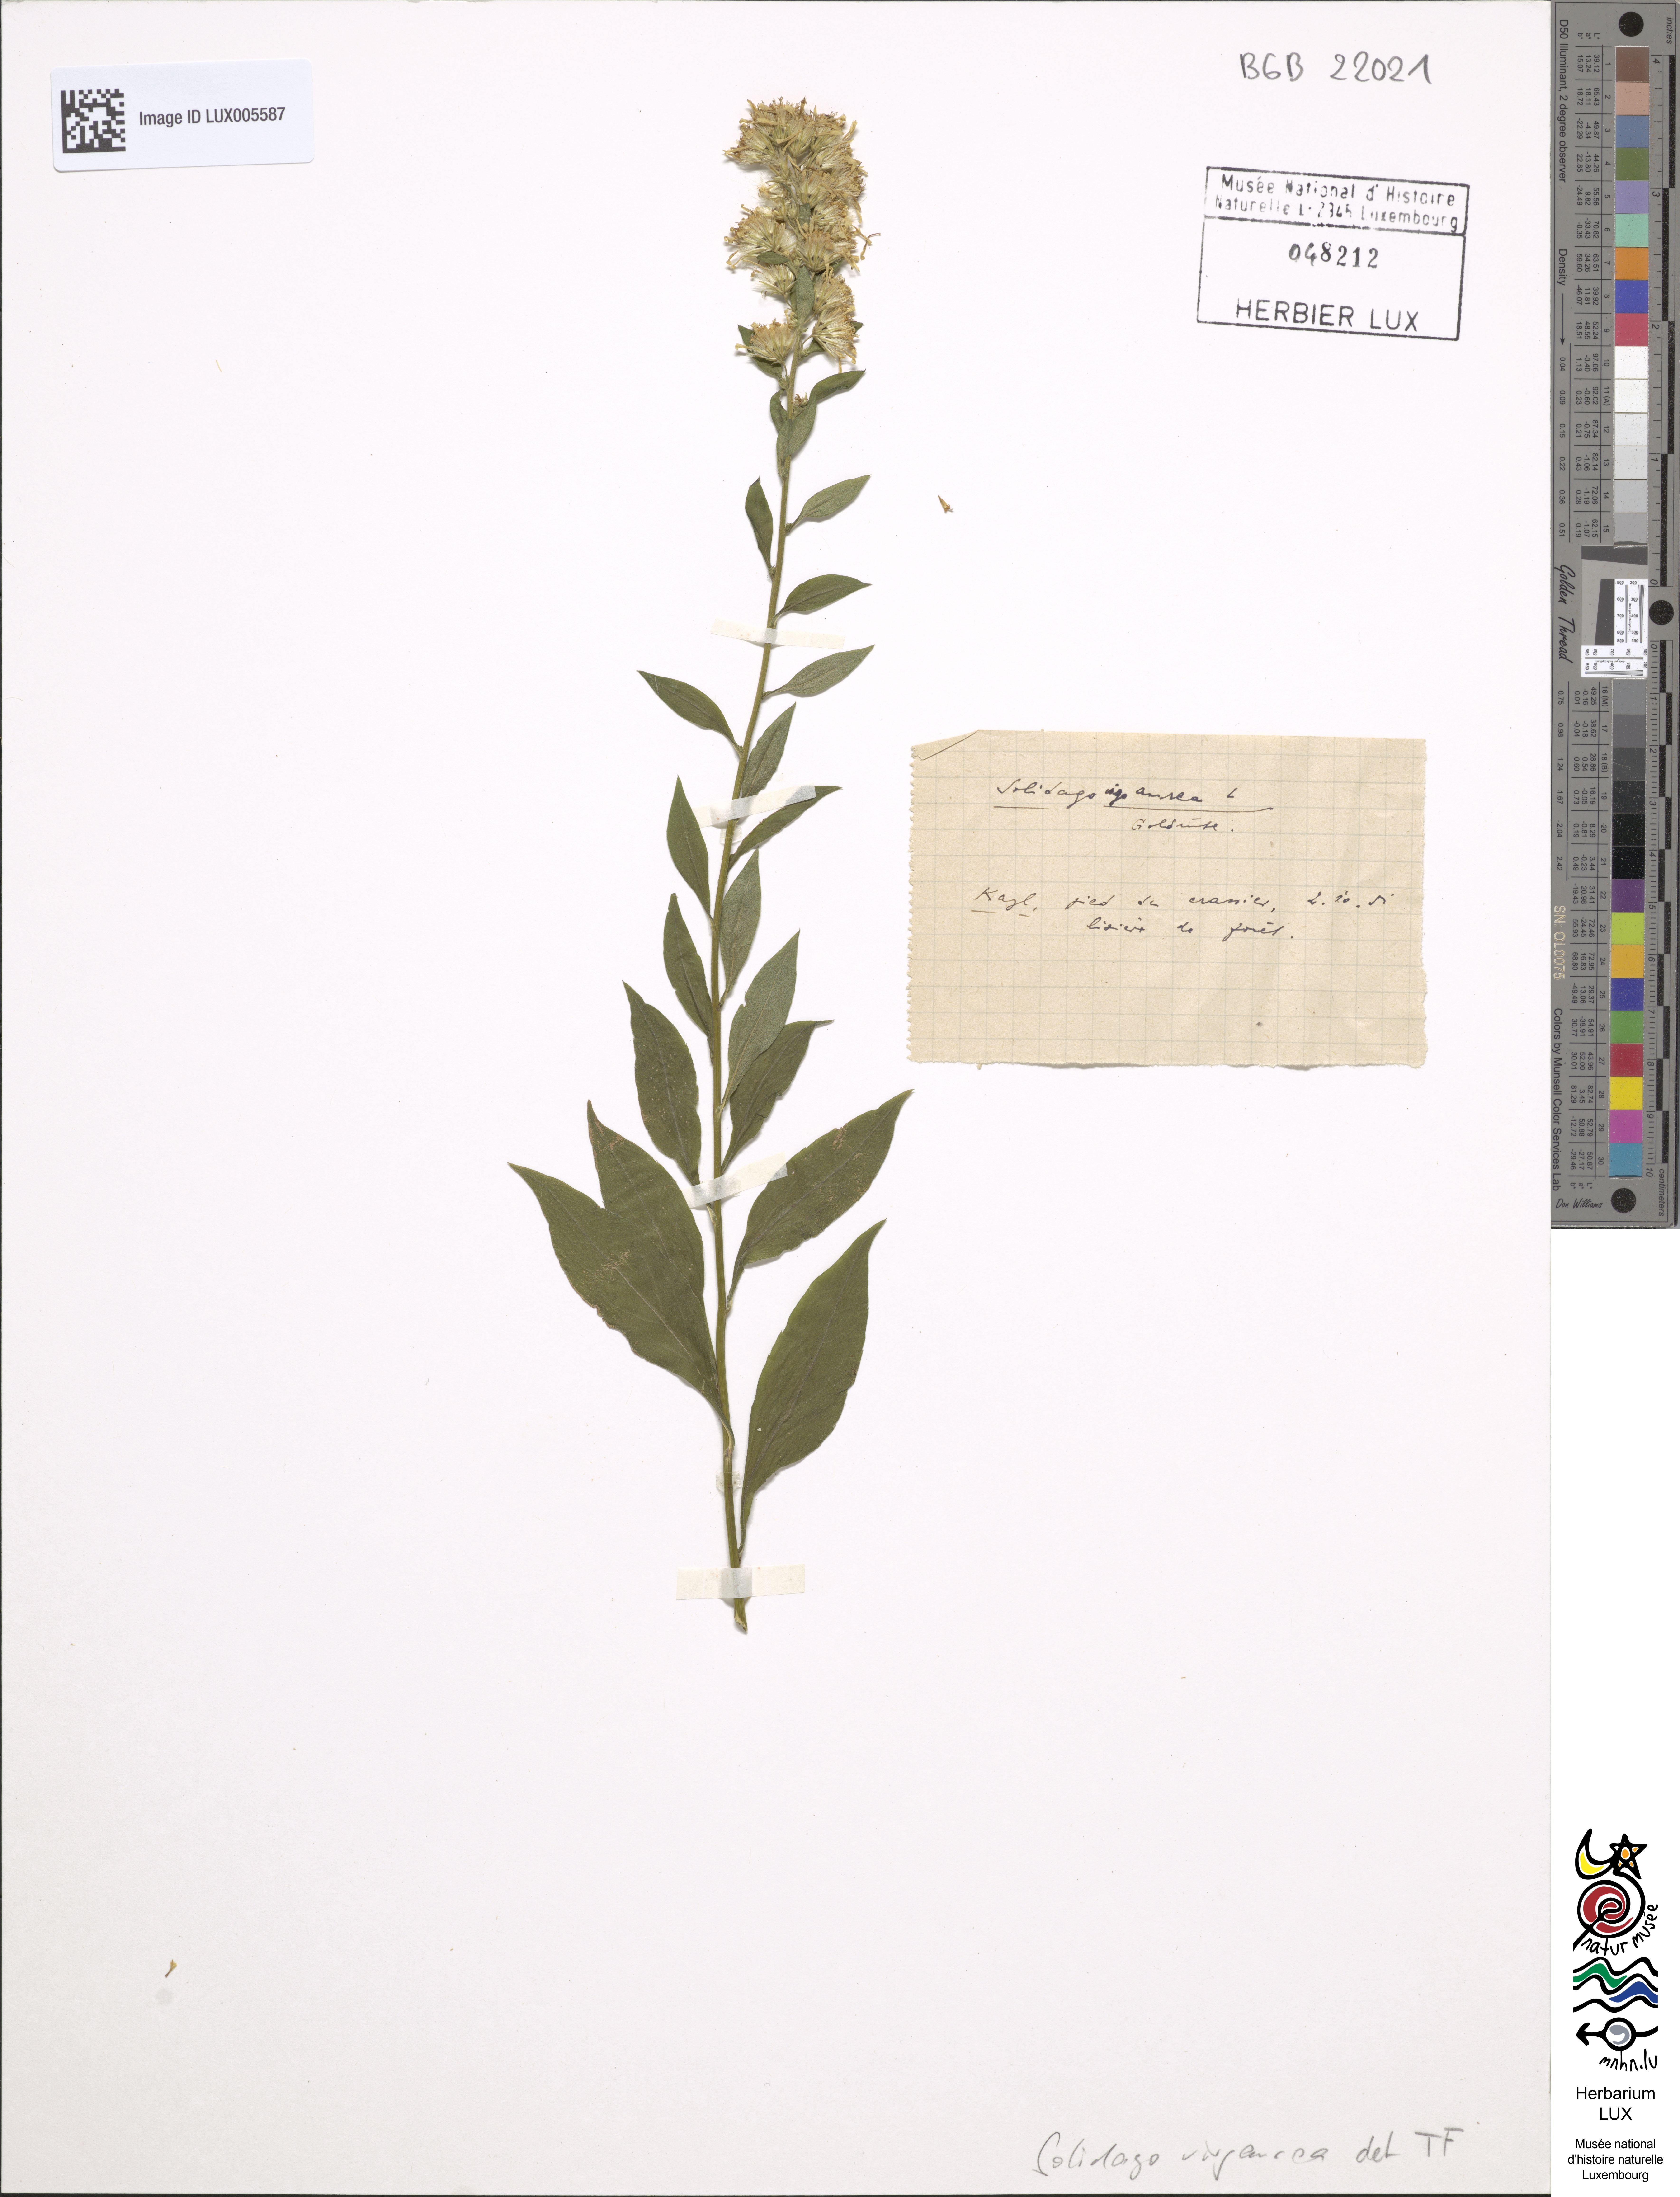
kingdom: Plantae
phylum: Tracheophyta
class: Magnoliopsida
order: Asterales
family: Asteraceae
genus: Solidago
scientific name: Solidago virgaurea
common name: Goldenrod
